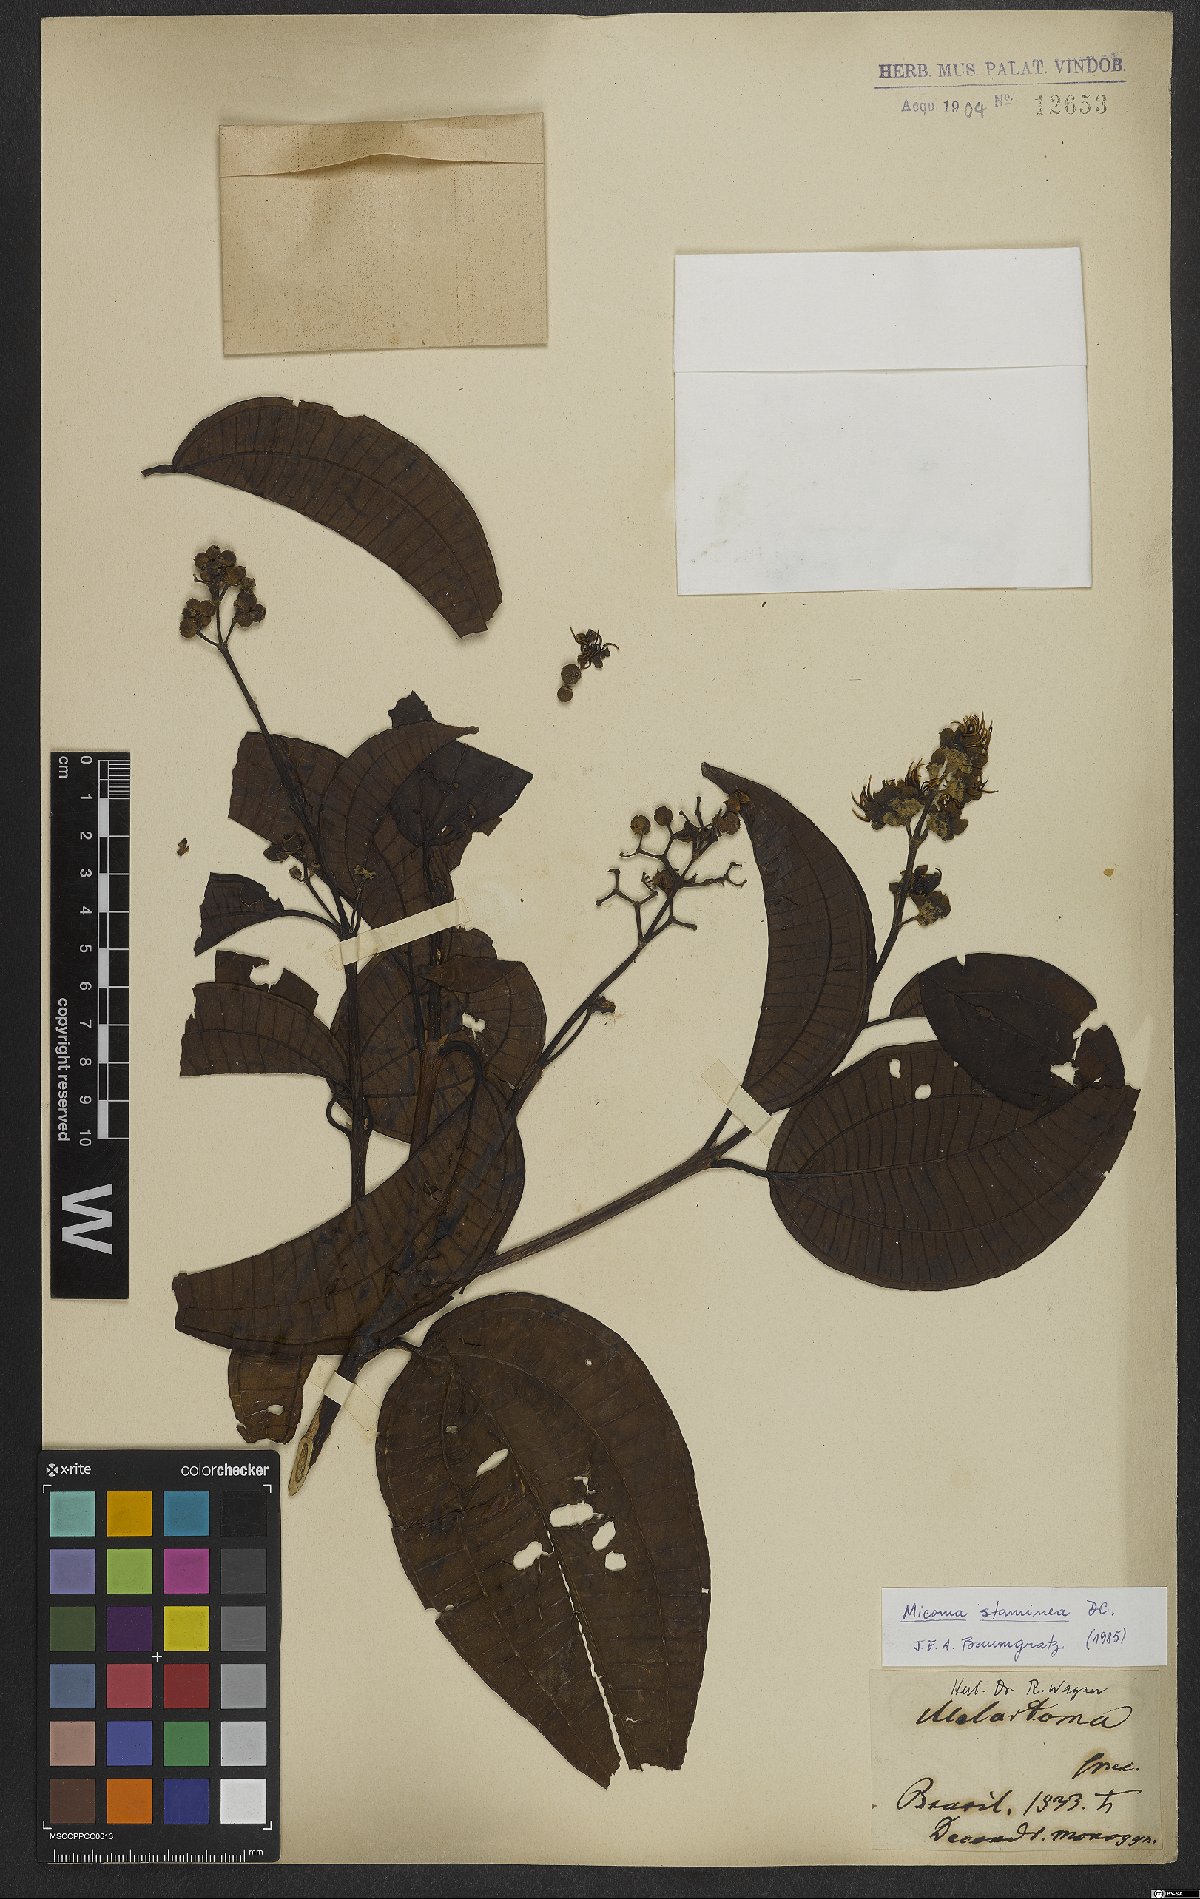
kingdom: Plantae
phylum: Tracheophyta
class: Magnoliopsida
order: Myrtales
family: Melastomataceae
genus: Miconia
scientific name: Miconia staminea
